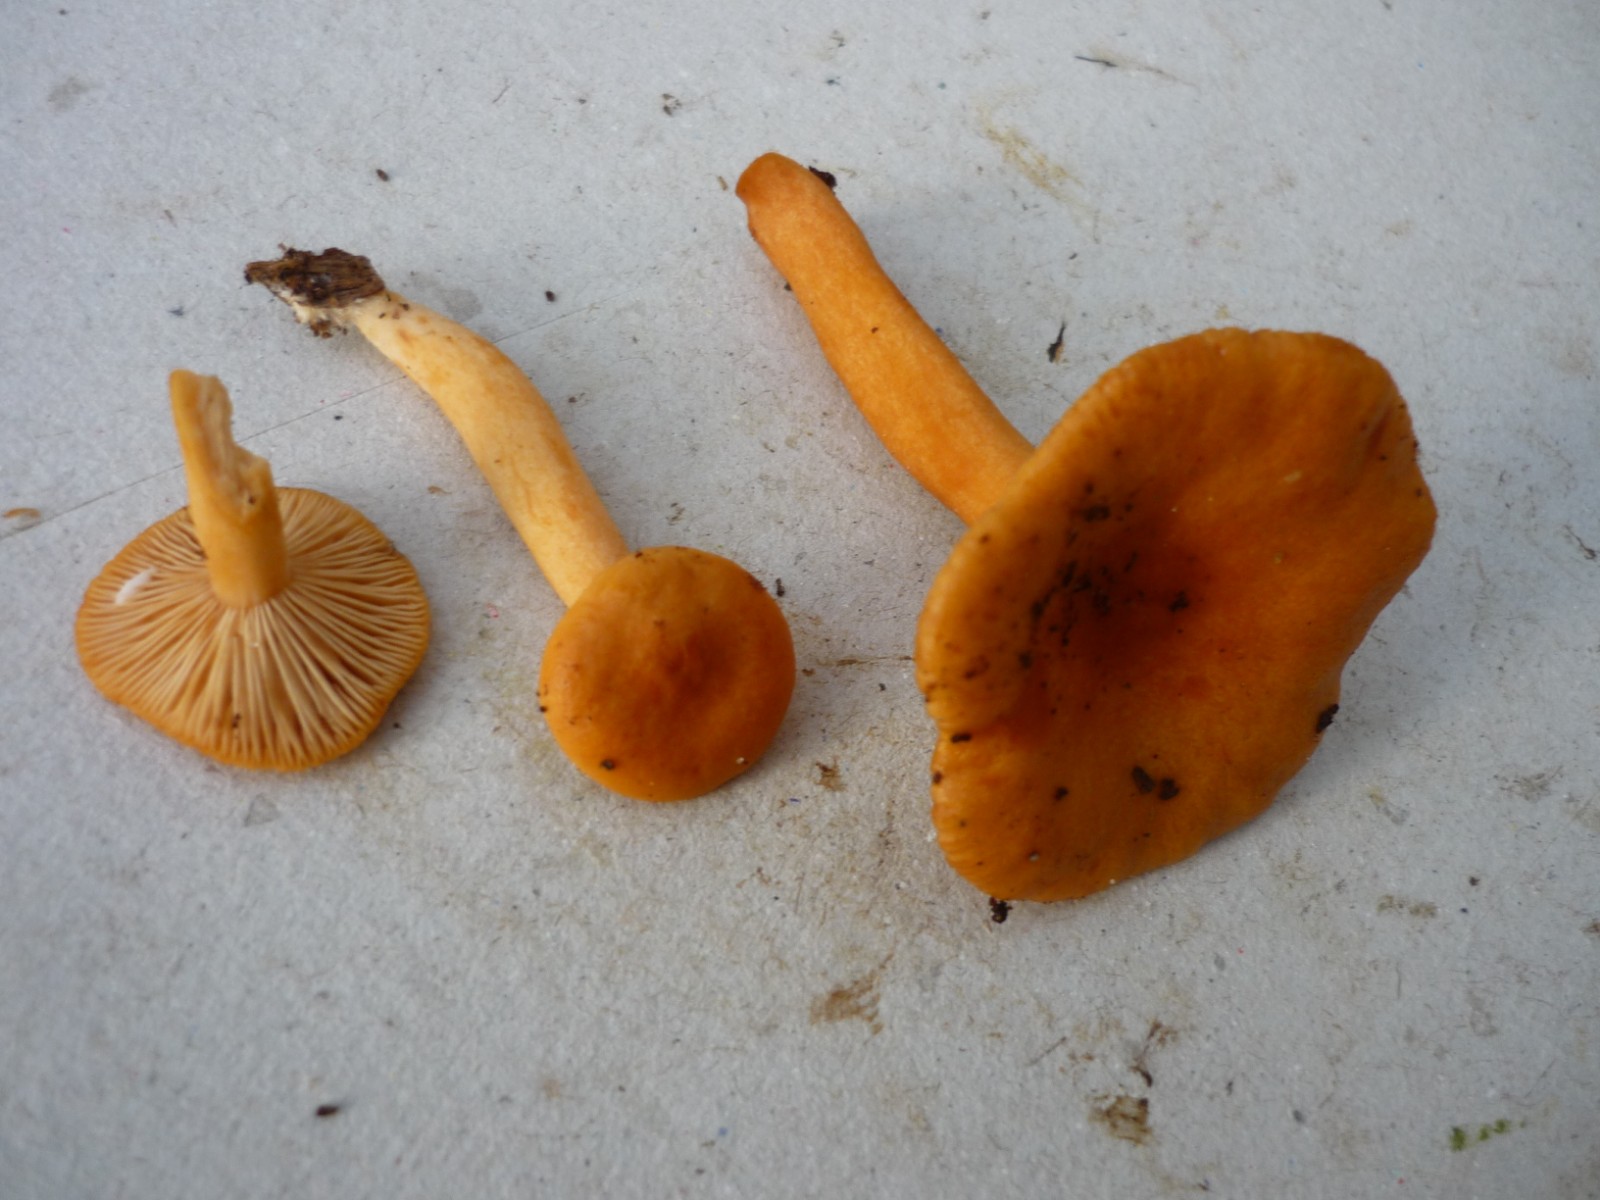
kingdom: Fungi
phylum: Basidiomycota
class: Agaricomycetes
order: Russulales
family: Russulaceae
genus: Lactarius
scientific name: Lactarius aurantiacus
